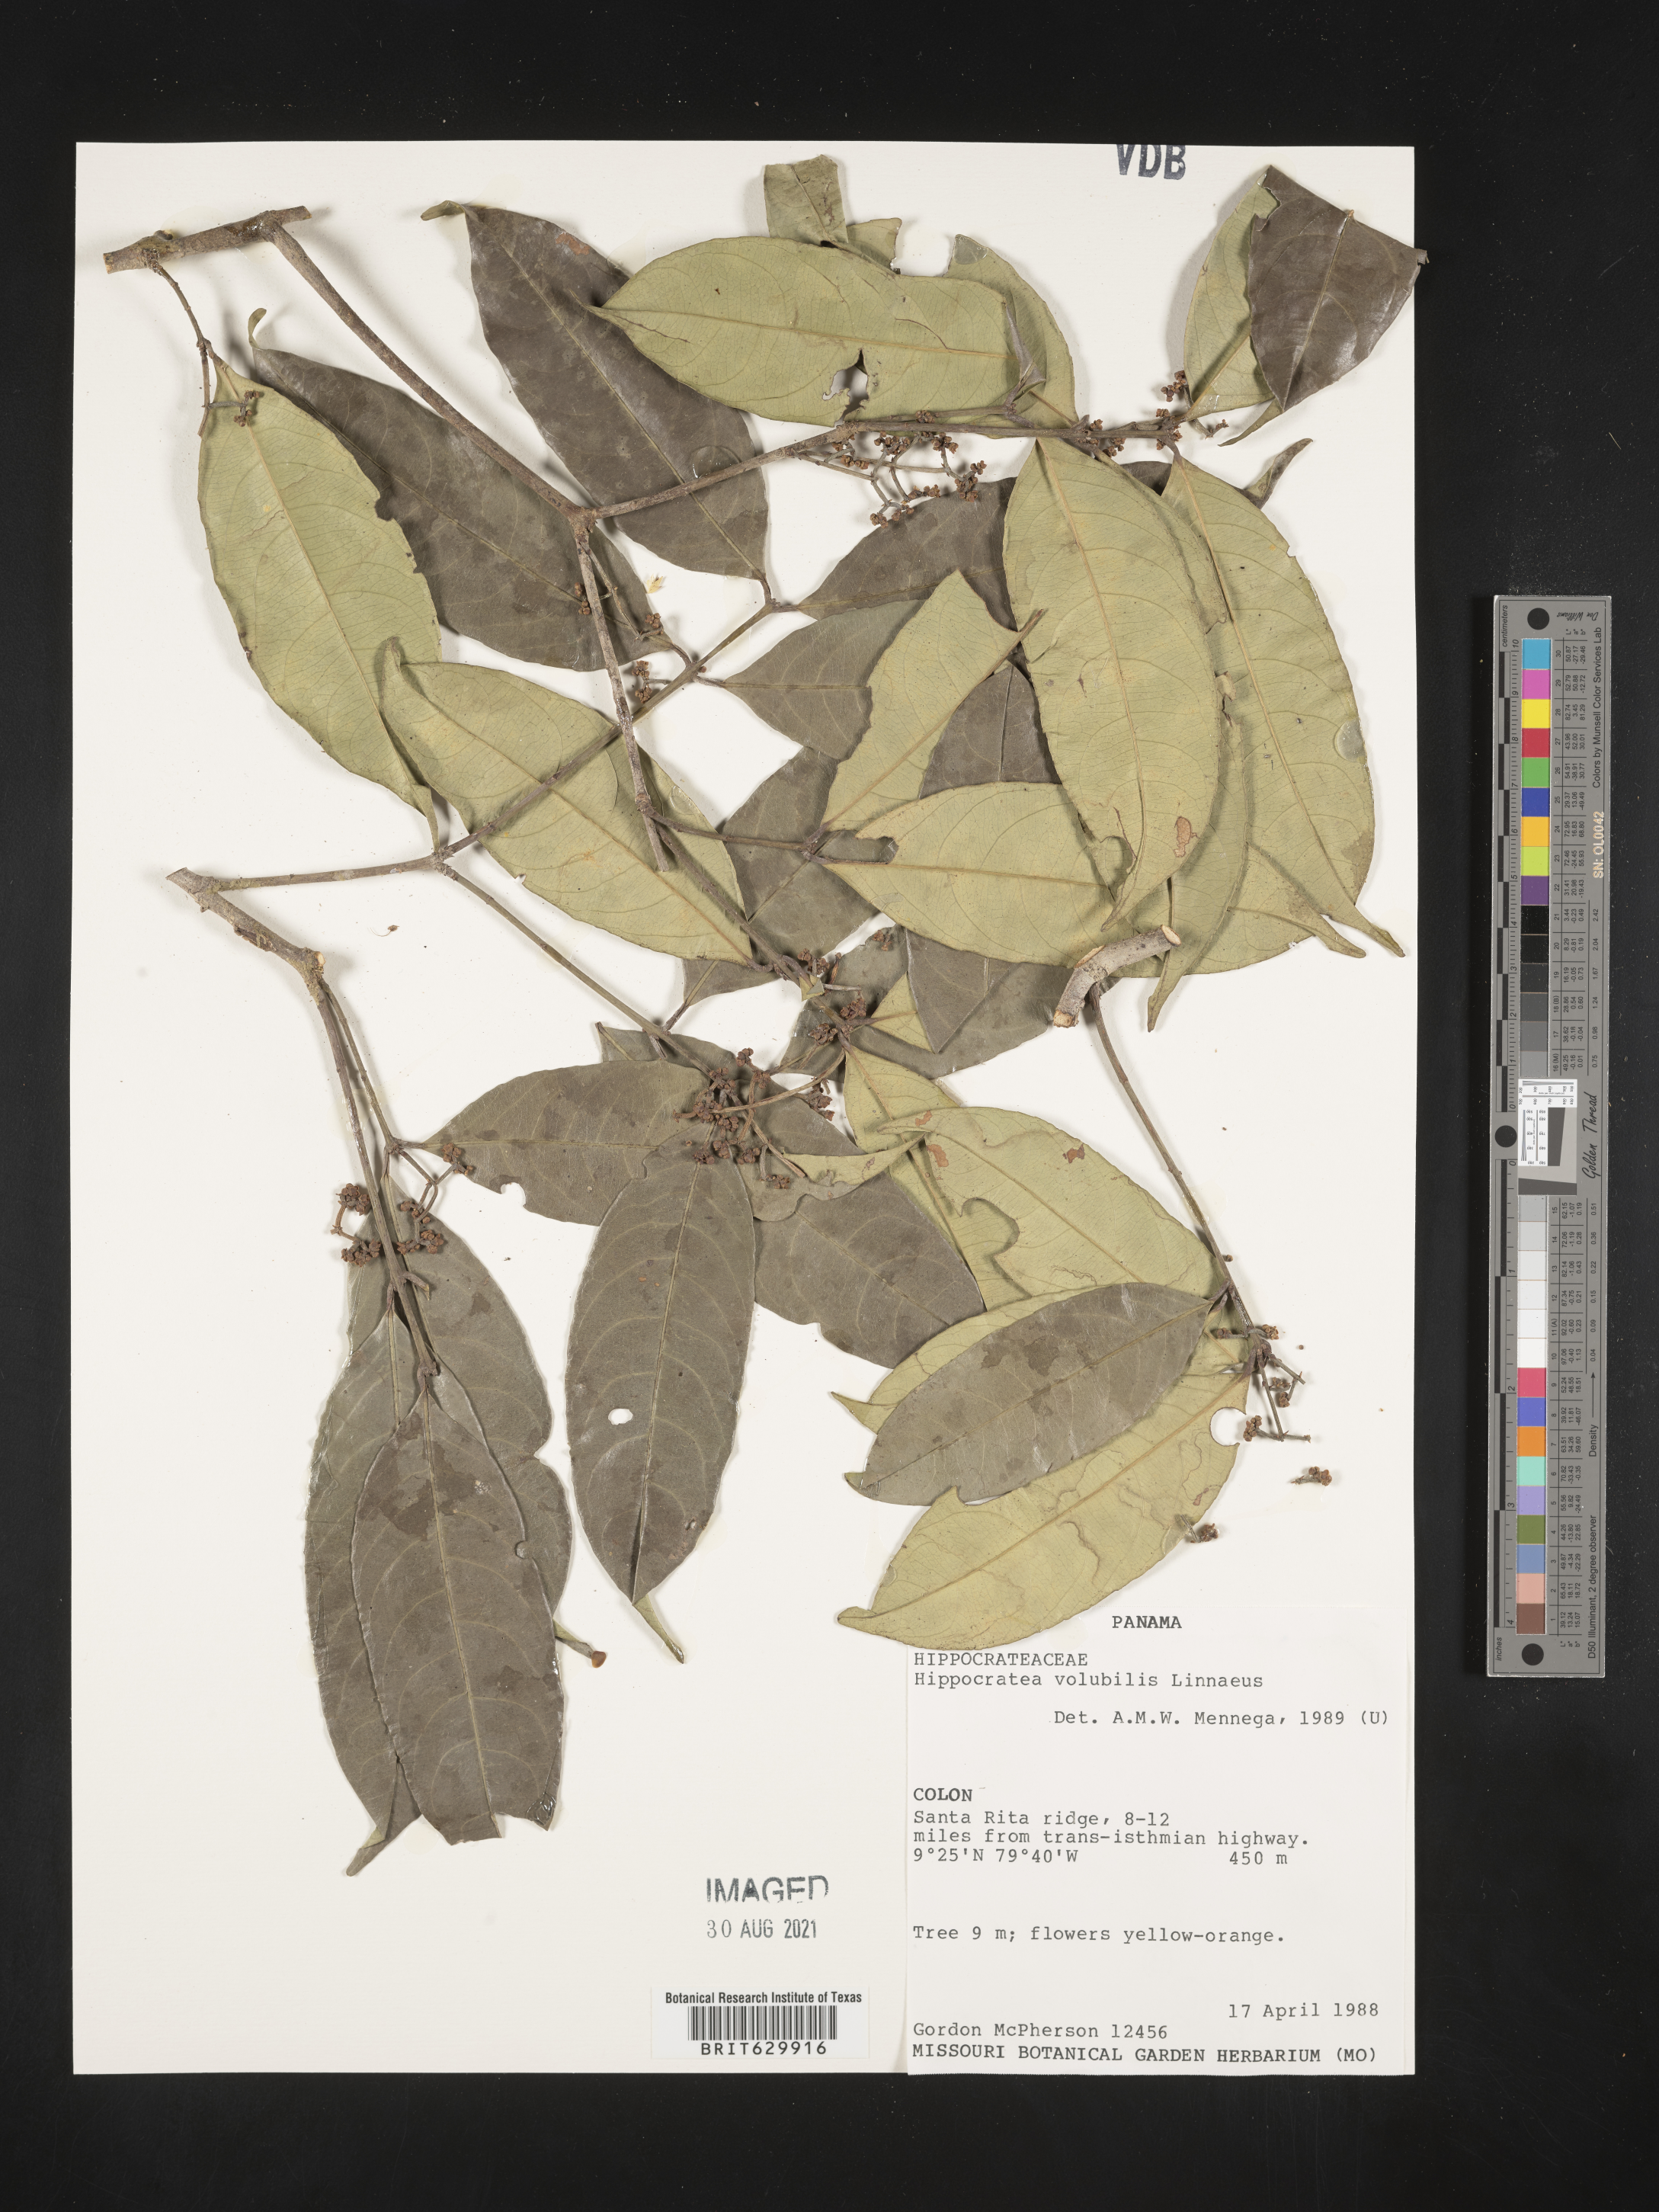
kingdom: Plantae
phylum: Tracheophyta
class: Magnoliopsida
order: Celastrales
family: Celastraceae
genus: Hippocratea
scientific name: Hippocratea volubilis
